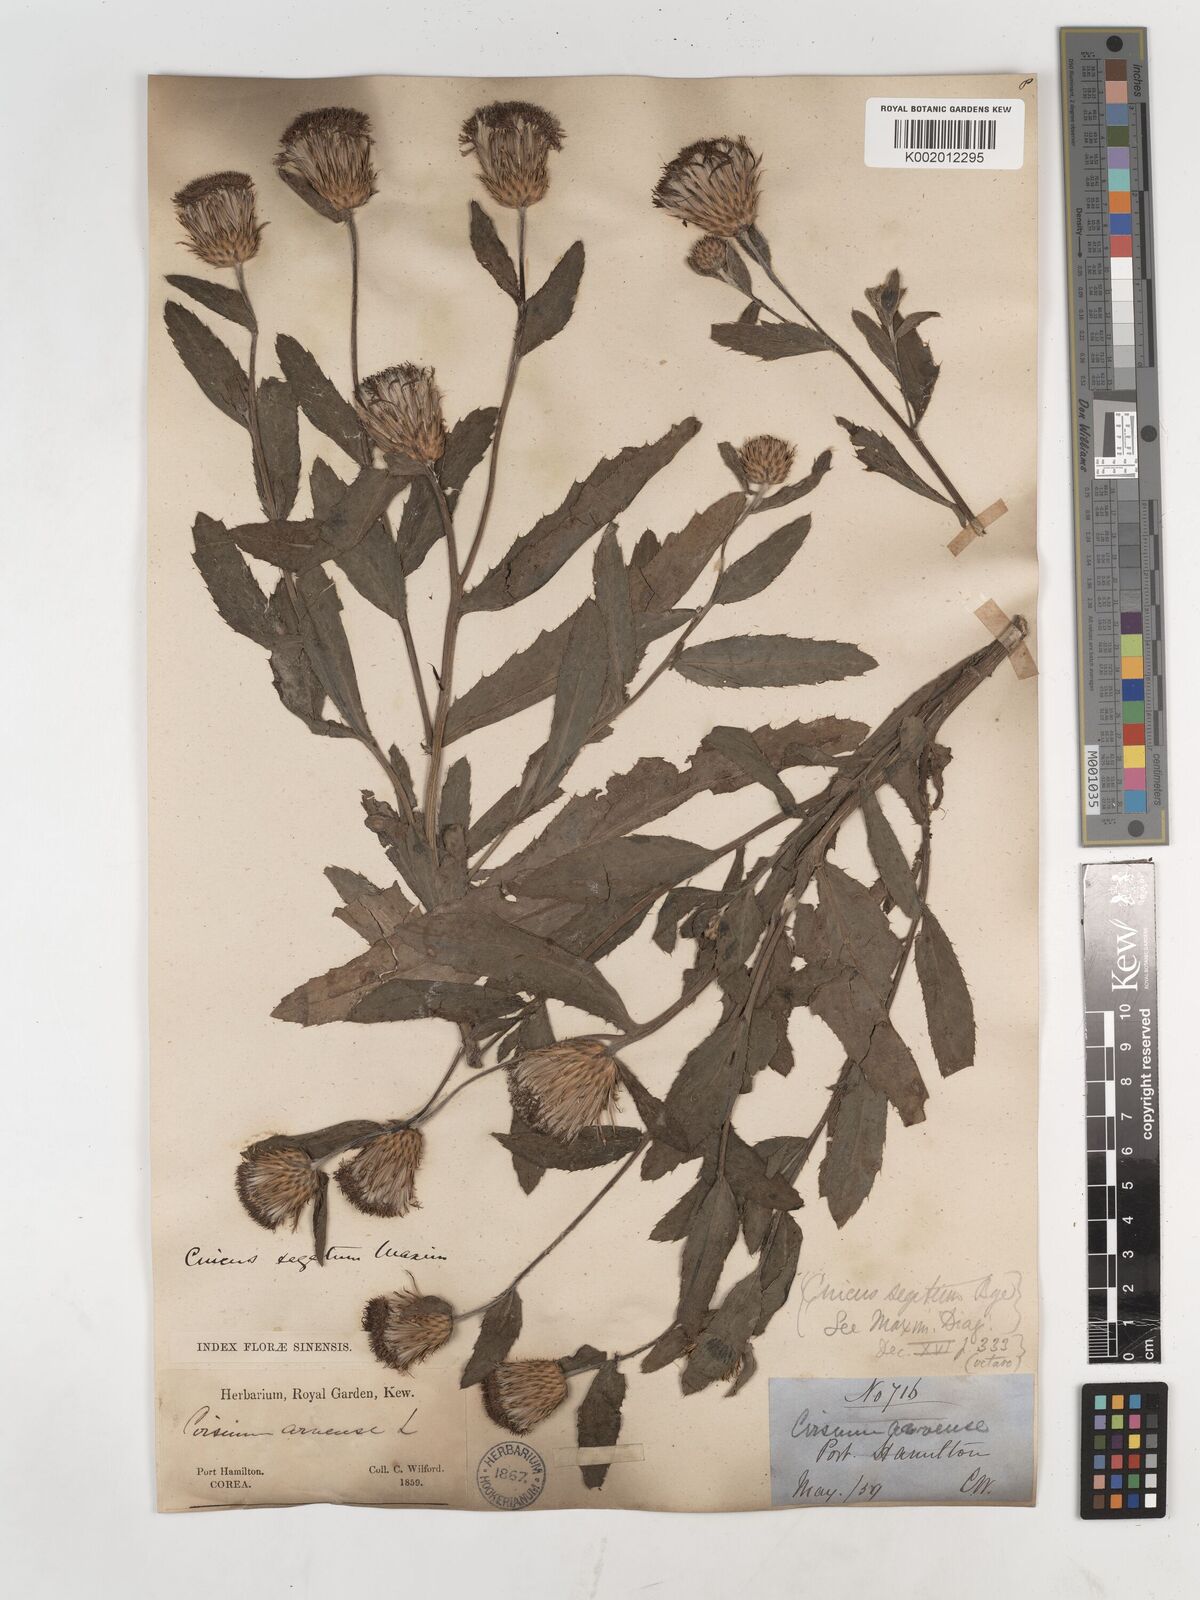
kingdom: Plantae
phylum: Tracheophyta
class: Magnoliopsida
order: Asterales
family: Asteraceae
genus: Cirsium
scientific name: Cirsium arvense
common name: Creeping thistle
